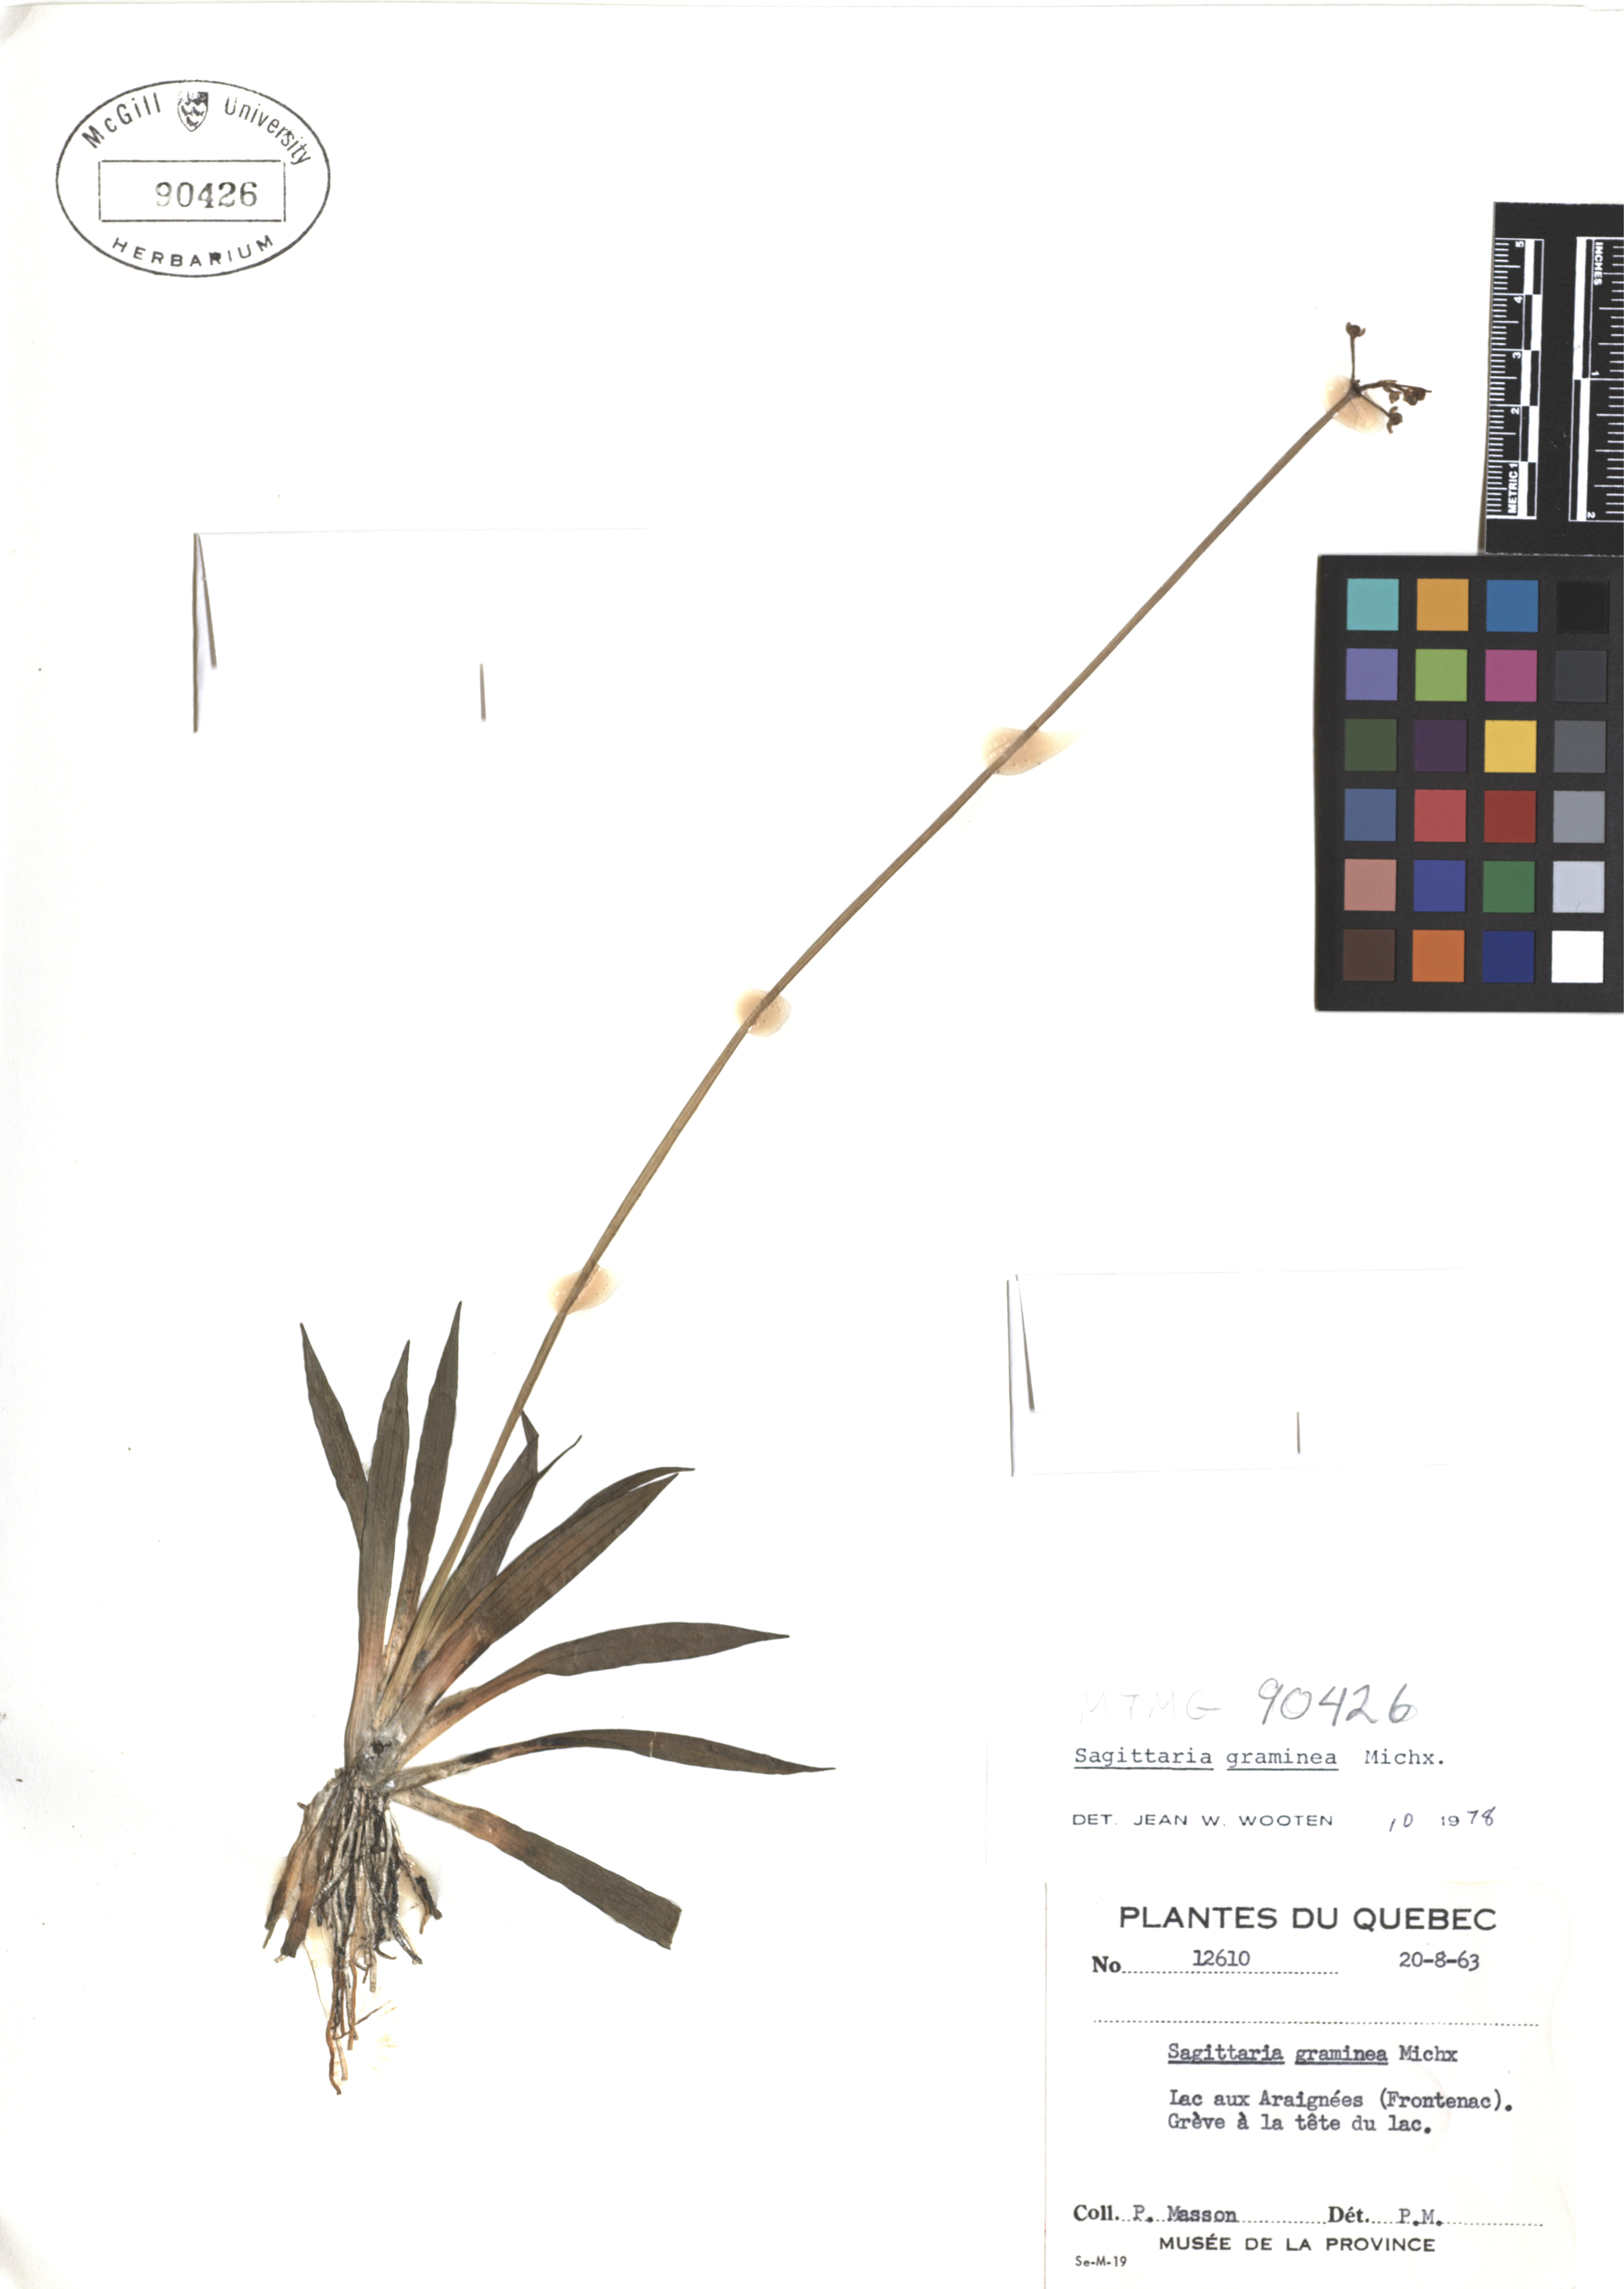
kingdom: Plantae
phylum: Tracheophyta
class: Liliopsida
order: Alismatales
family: Alismataceae
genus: Sagittaria
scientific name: Sagittaria graminea
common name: Grass-leaved arrowhead
